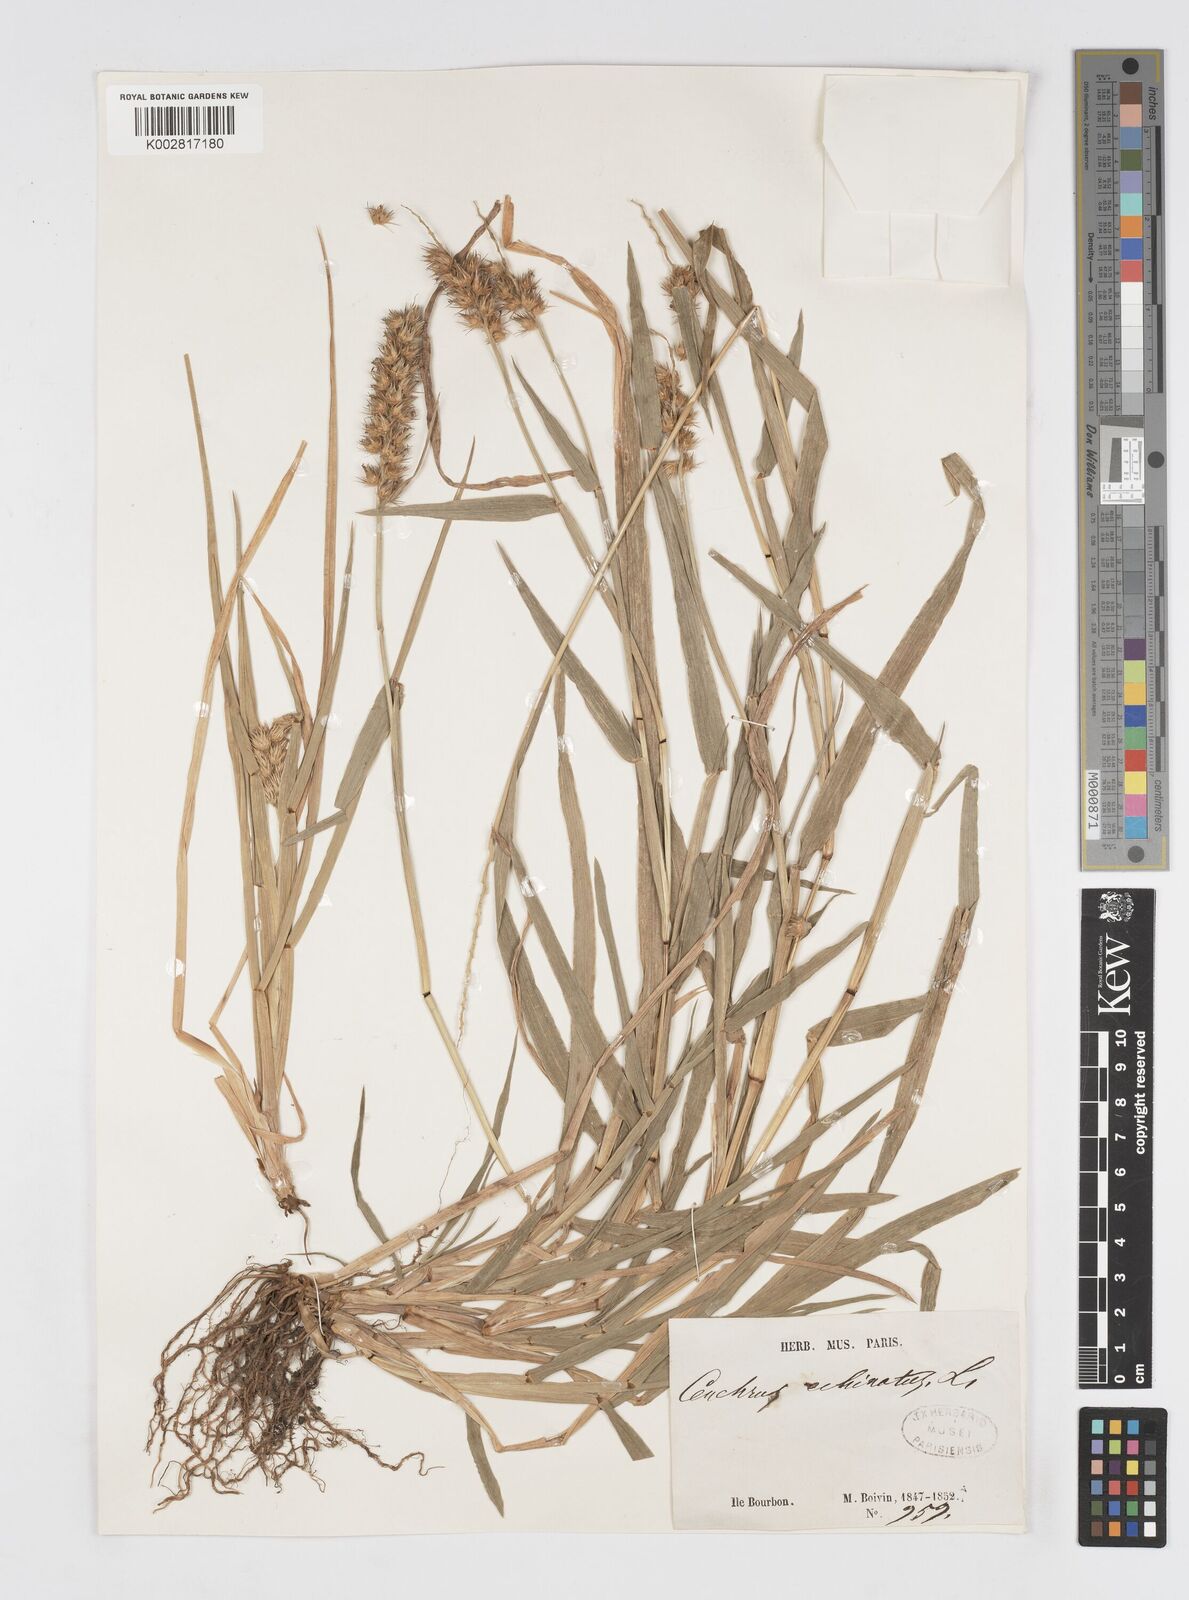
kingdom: Plantae
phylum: Tracheophyta
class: Liliopsida
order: Poales
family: Poaceae
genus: Cenchrus
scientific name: Cenchrus
